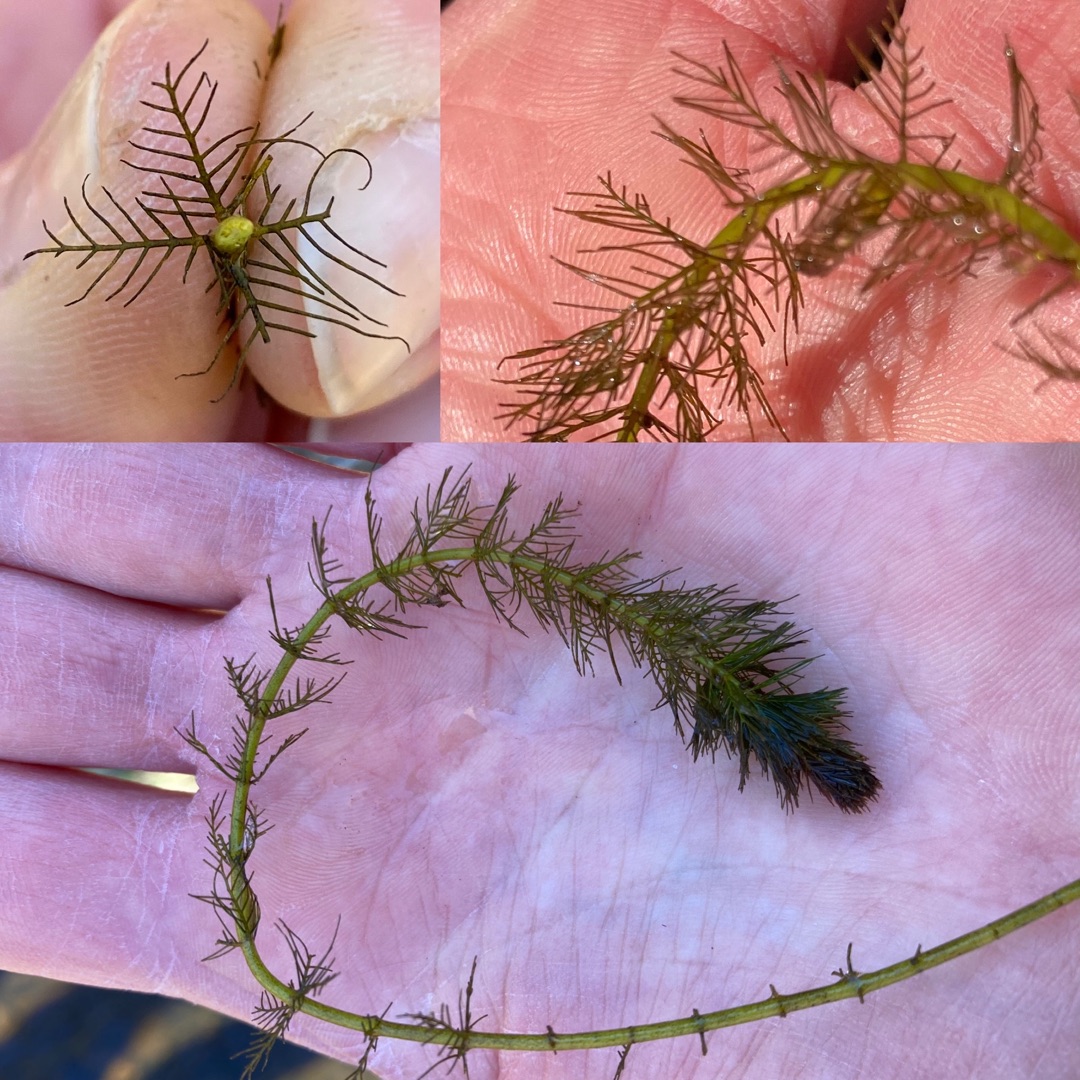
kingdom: Plantae
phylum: Tracheophyta
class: Magnoliopsida
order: Saxifragales
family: Haloragaceae
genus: Myriophyllum
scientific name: Myriophyllum spicatum
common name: Aks-tusindblad
